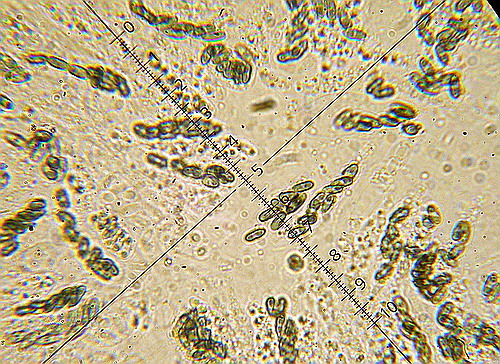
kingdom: Fungi
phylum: Ascomycota
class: Sordariomycetes
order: Boliniales
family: Boliniaceae
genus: Camarops
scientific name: Camarops tubulina
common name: knudret kulsnegl
